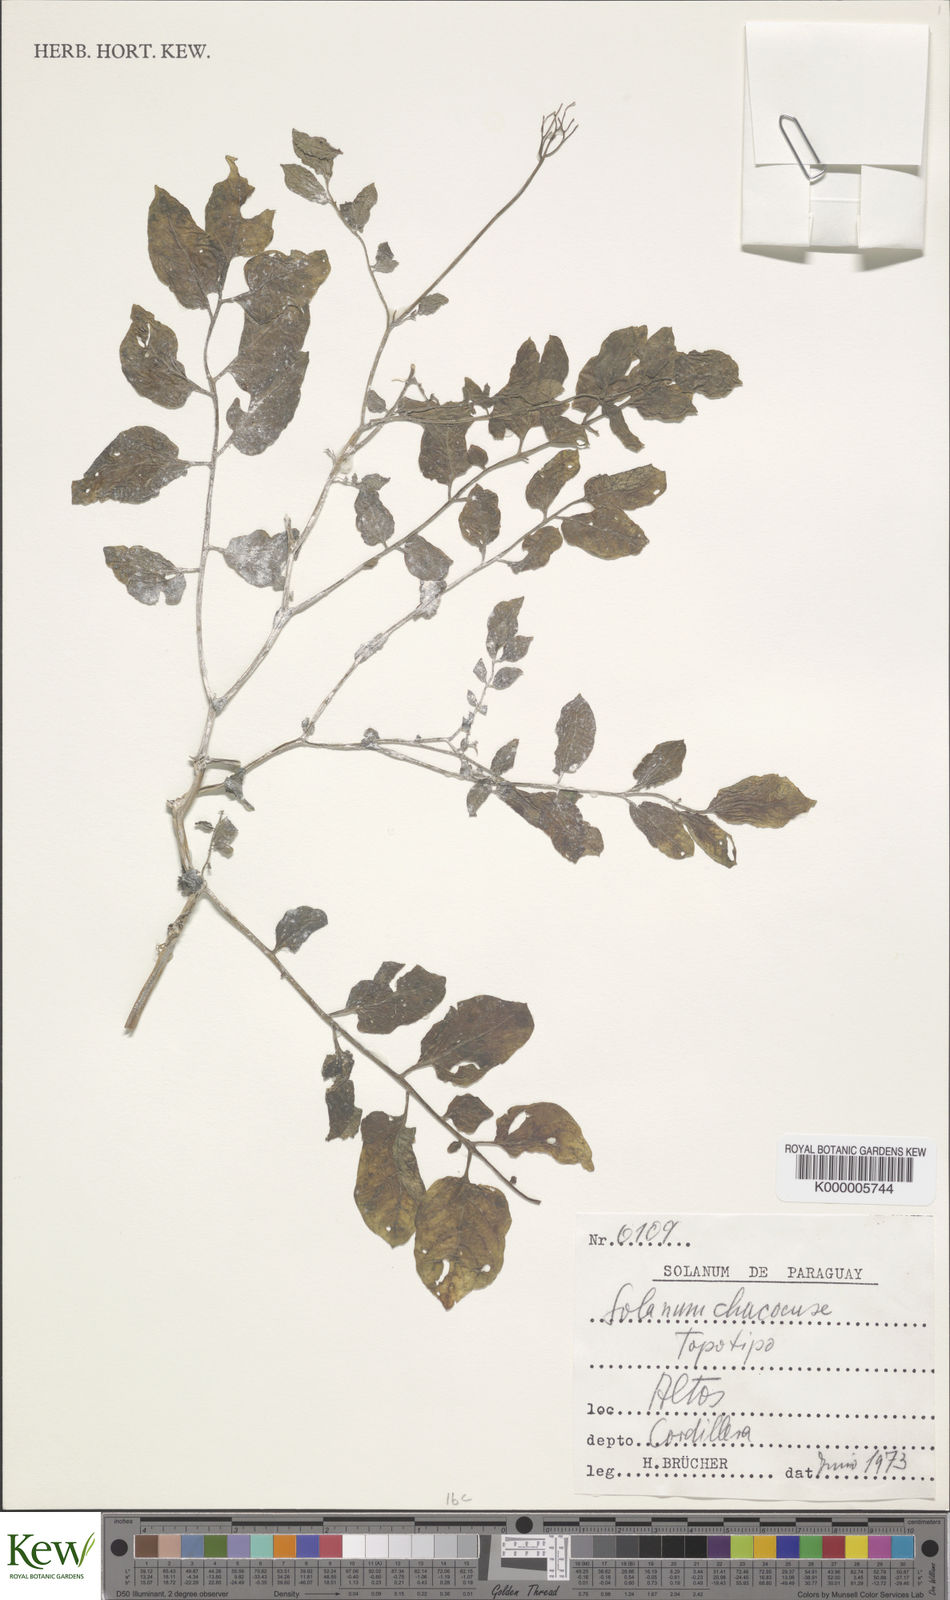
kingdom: Plantae
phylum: Tracheophyta
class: Magnoliopsida
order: Solanales
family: Solanaceae
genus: Solanum
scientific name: Solanum chacoense
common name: Chaco potato
